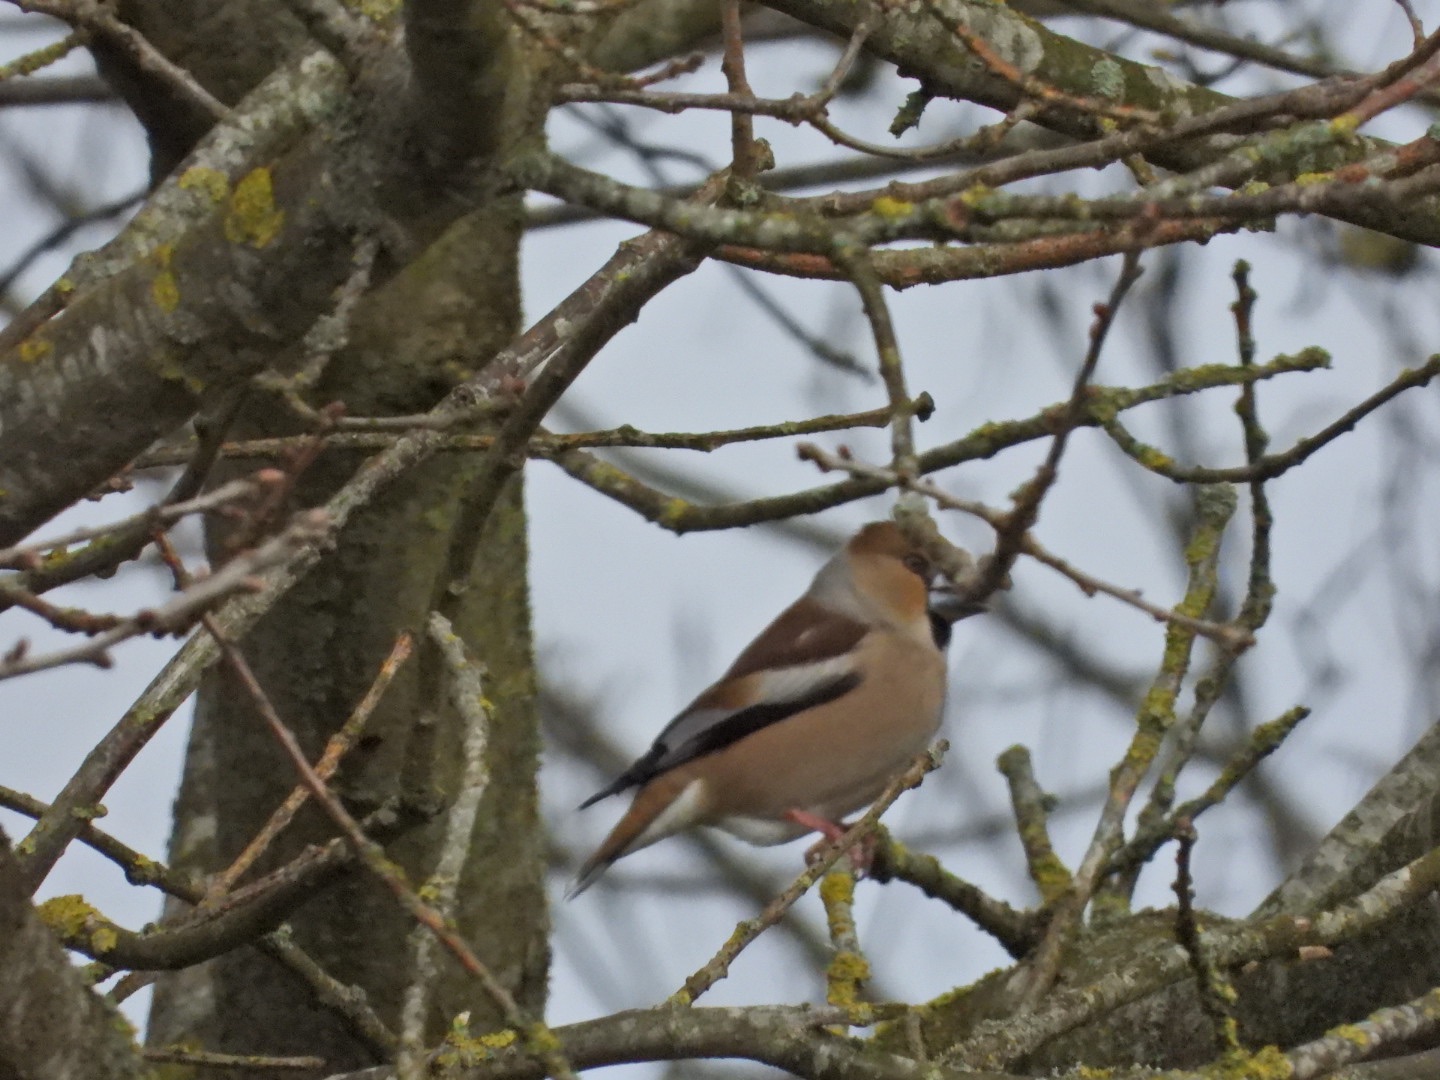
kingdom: Animalia
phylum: Chordata
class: Aves
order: Passeriformes
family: Fringillidae
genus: Coccothraustes
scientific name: Coccothraustes coccothraustes
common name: Kernebider
